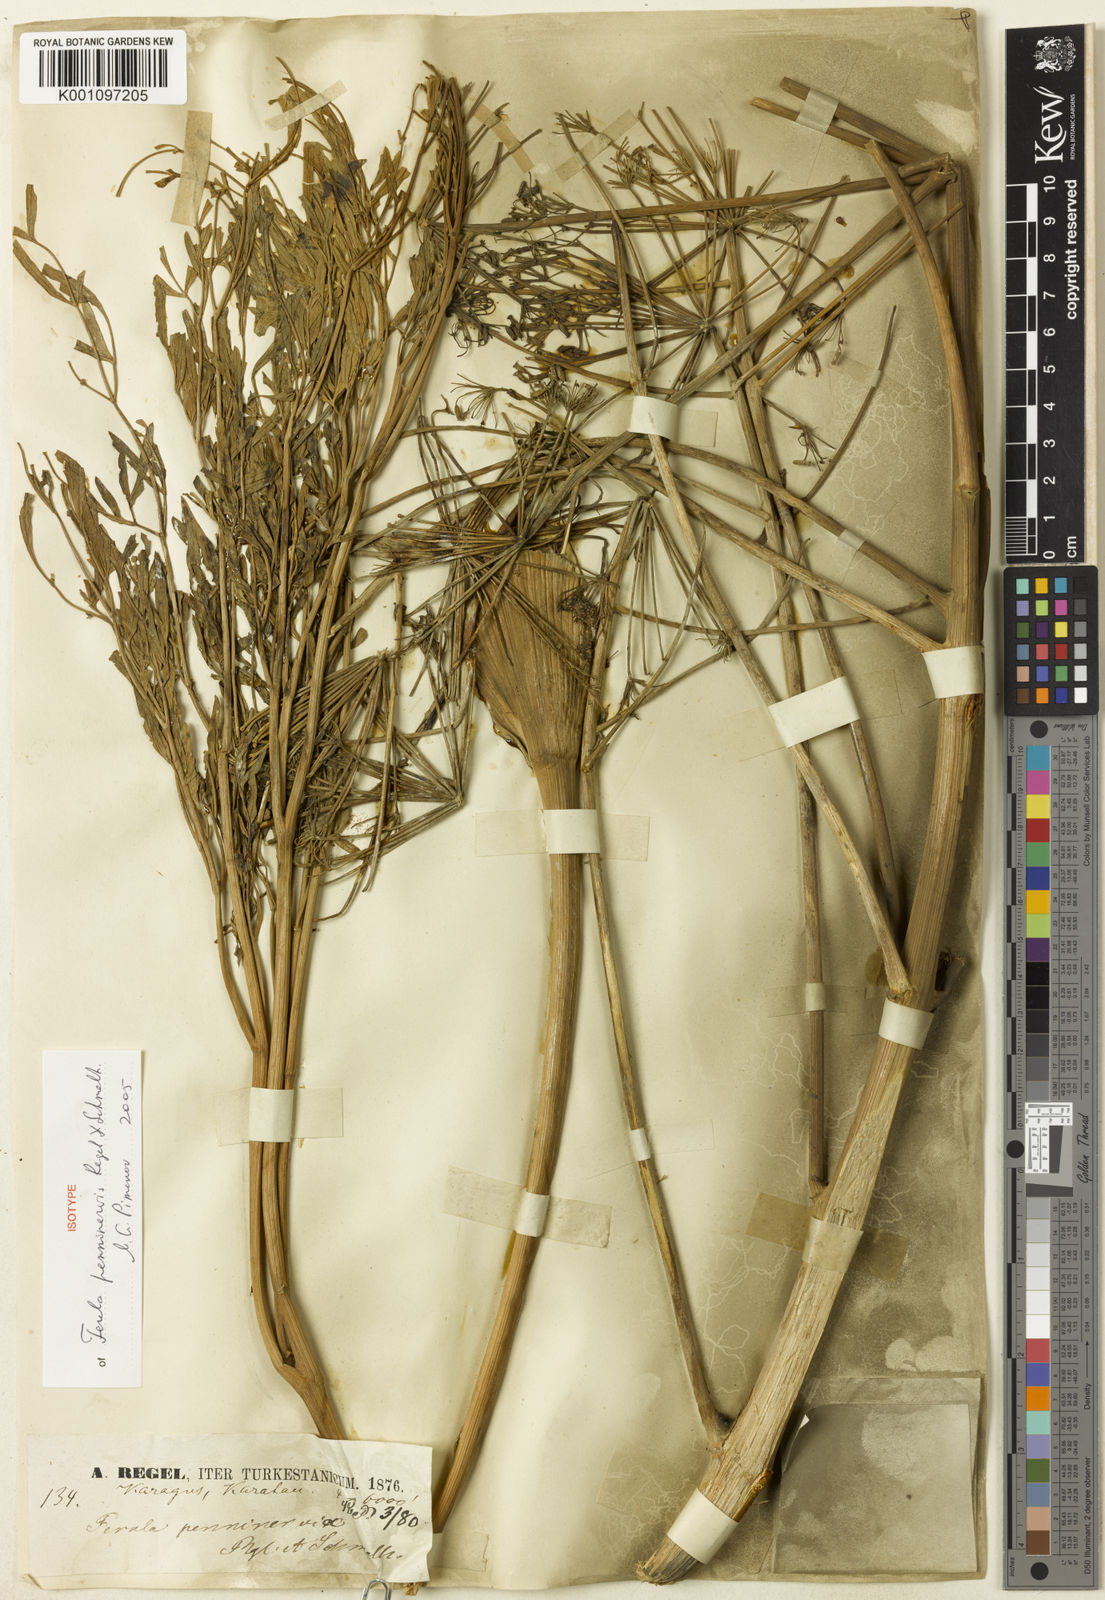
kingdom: Plantae
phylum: Tracheophyta
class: Magnoliopsida
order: Apiales
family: Apiaceae
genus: Ferula
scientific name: Ferula penninervis
